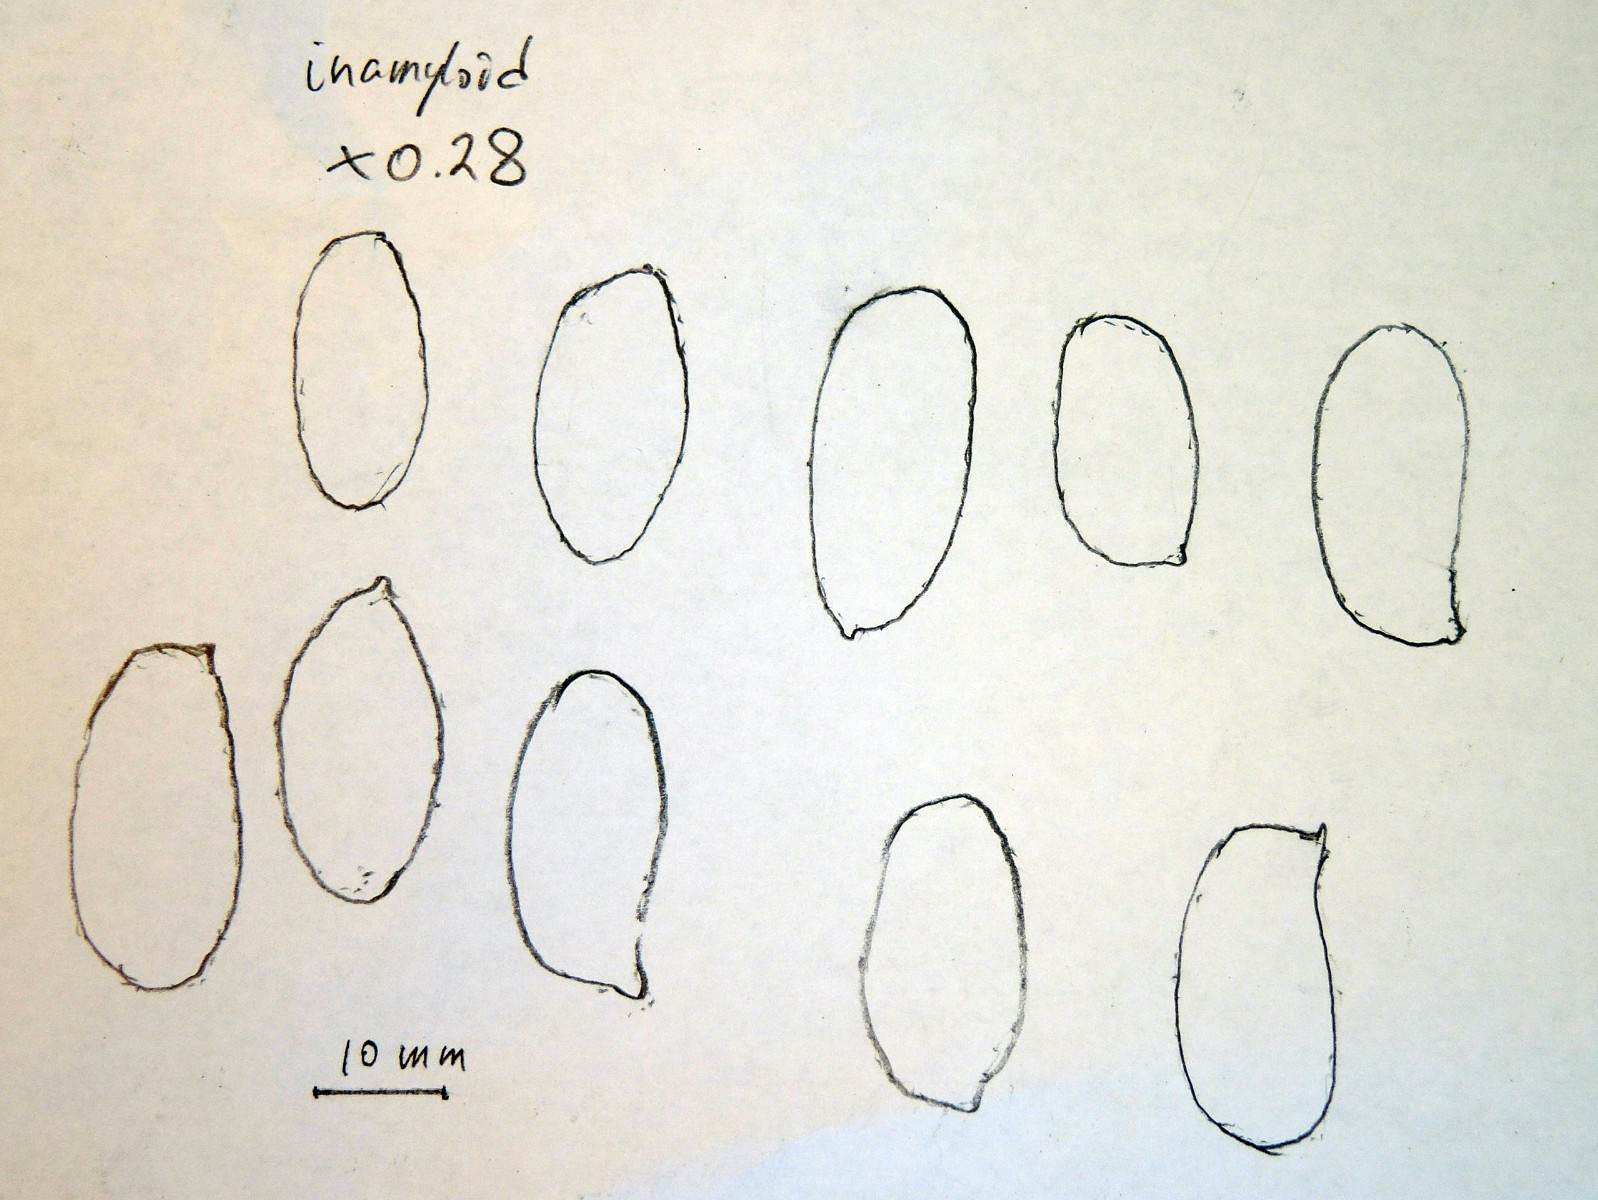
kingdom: Fungi
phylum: Basidiomycota
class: Agaricomycetes
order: Polyporales
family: Phanerochaetaceae
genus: Porostereum
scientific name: Porostereum spadiceum
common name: daddellædersvamp
